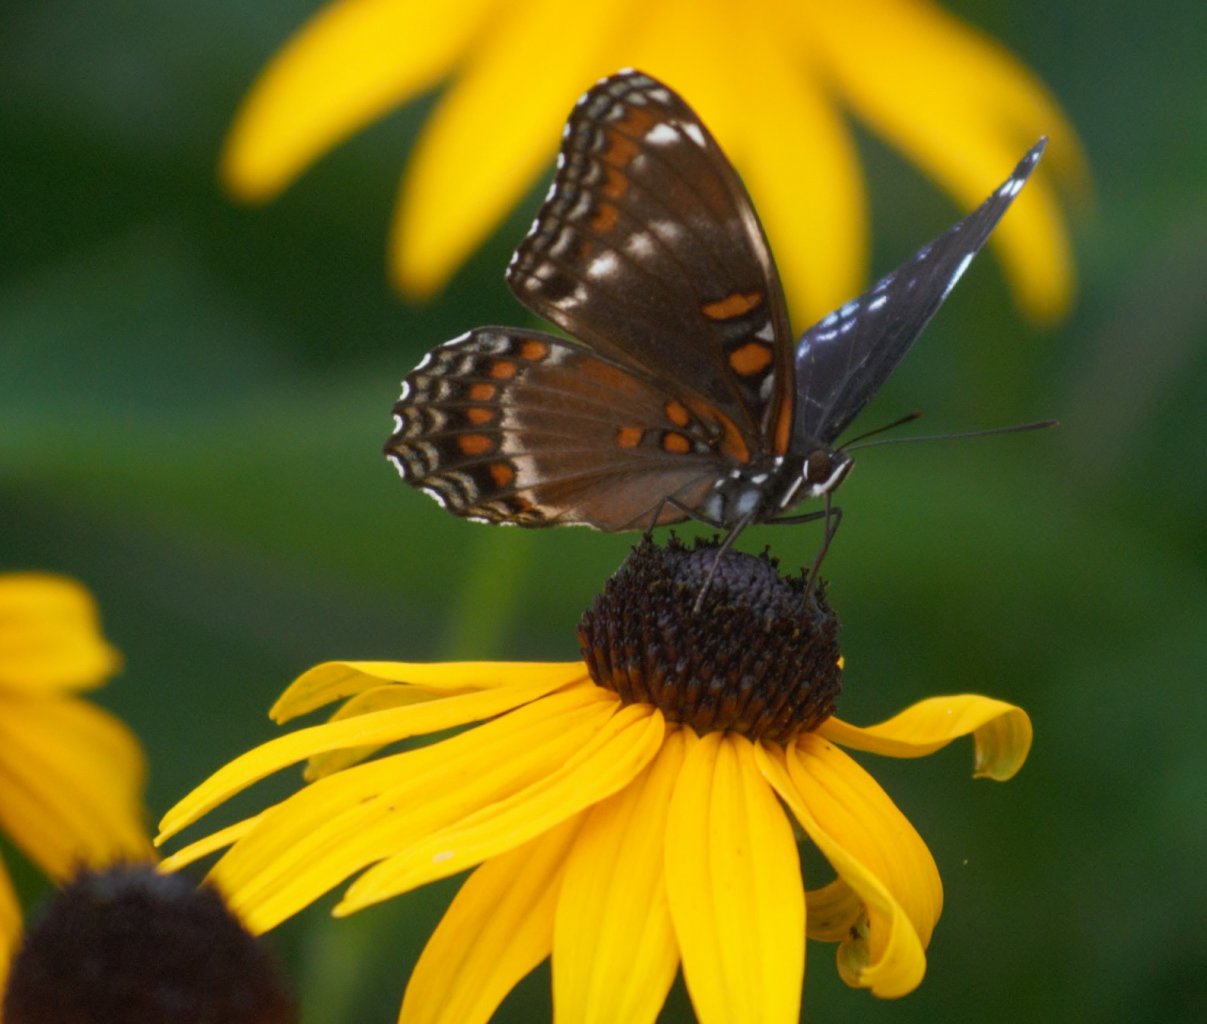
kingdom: Animalia
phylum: Arthropoda
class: Insecta
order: Lepidoptera
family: Nymphalidae
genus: Limenitis
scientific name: Limenitis astyanax
